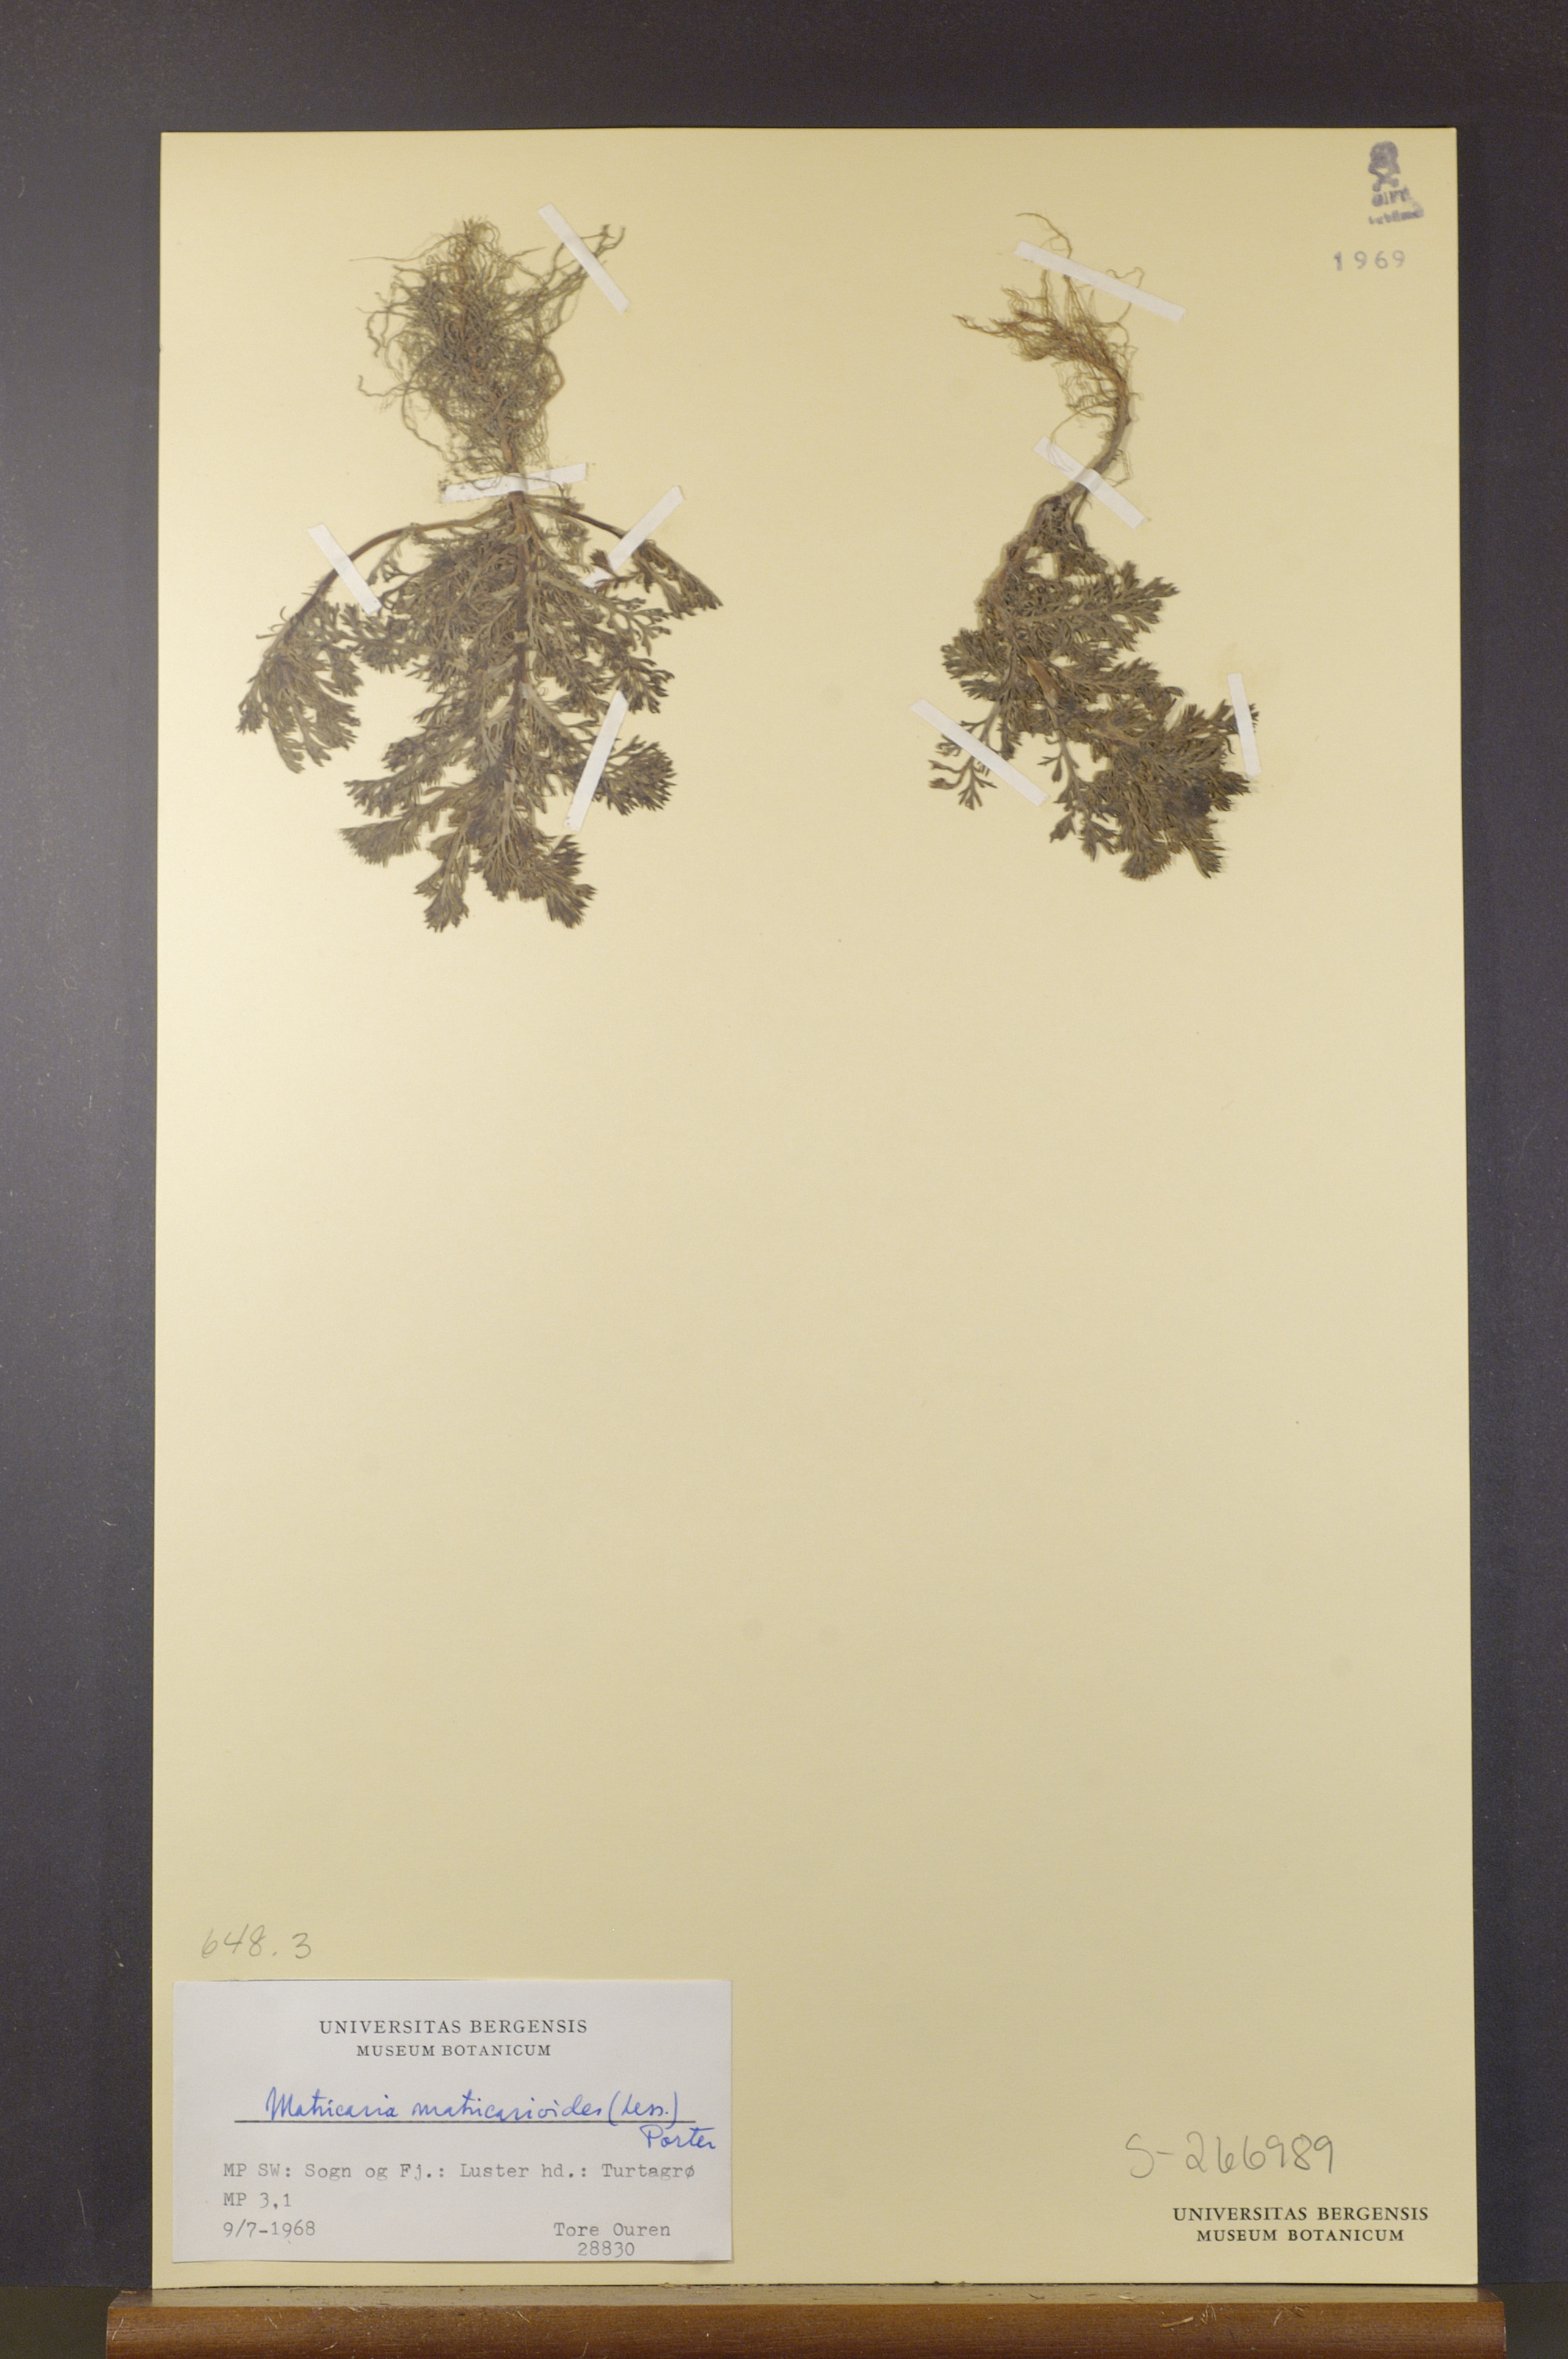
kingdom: Plantae
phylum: Tracheophyta
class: Magnoliopsida
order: Asterales
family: Asteraceae
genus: Matricaria
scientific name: Matricaria discoidea
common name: Disc mayweed
